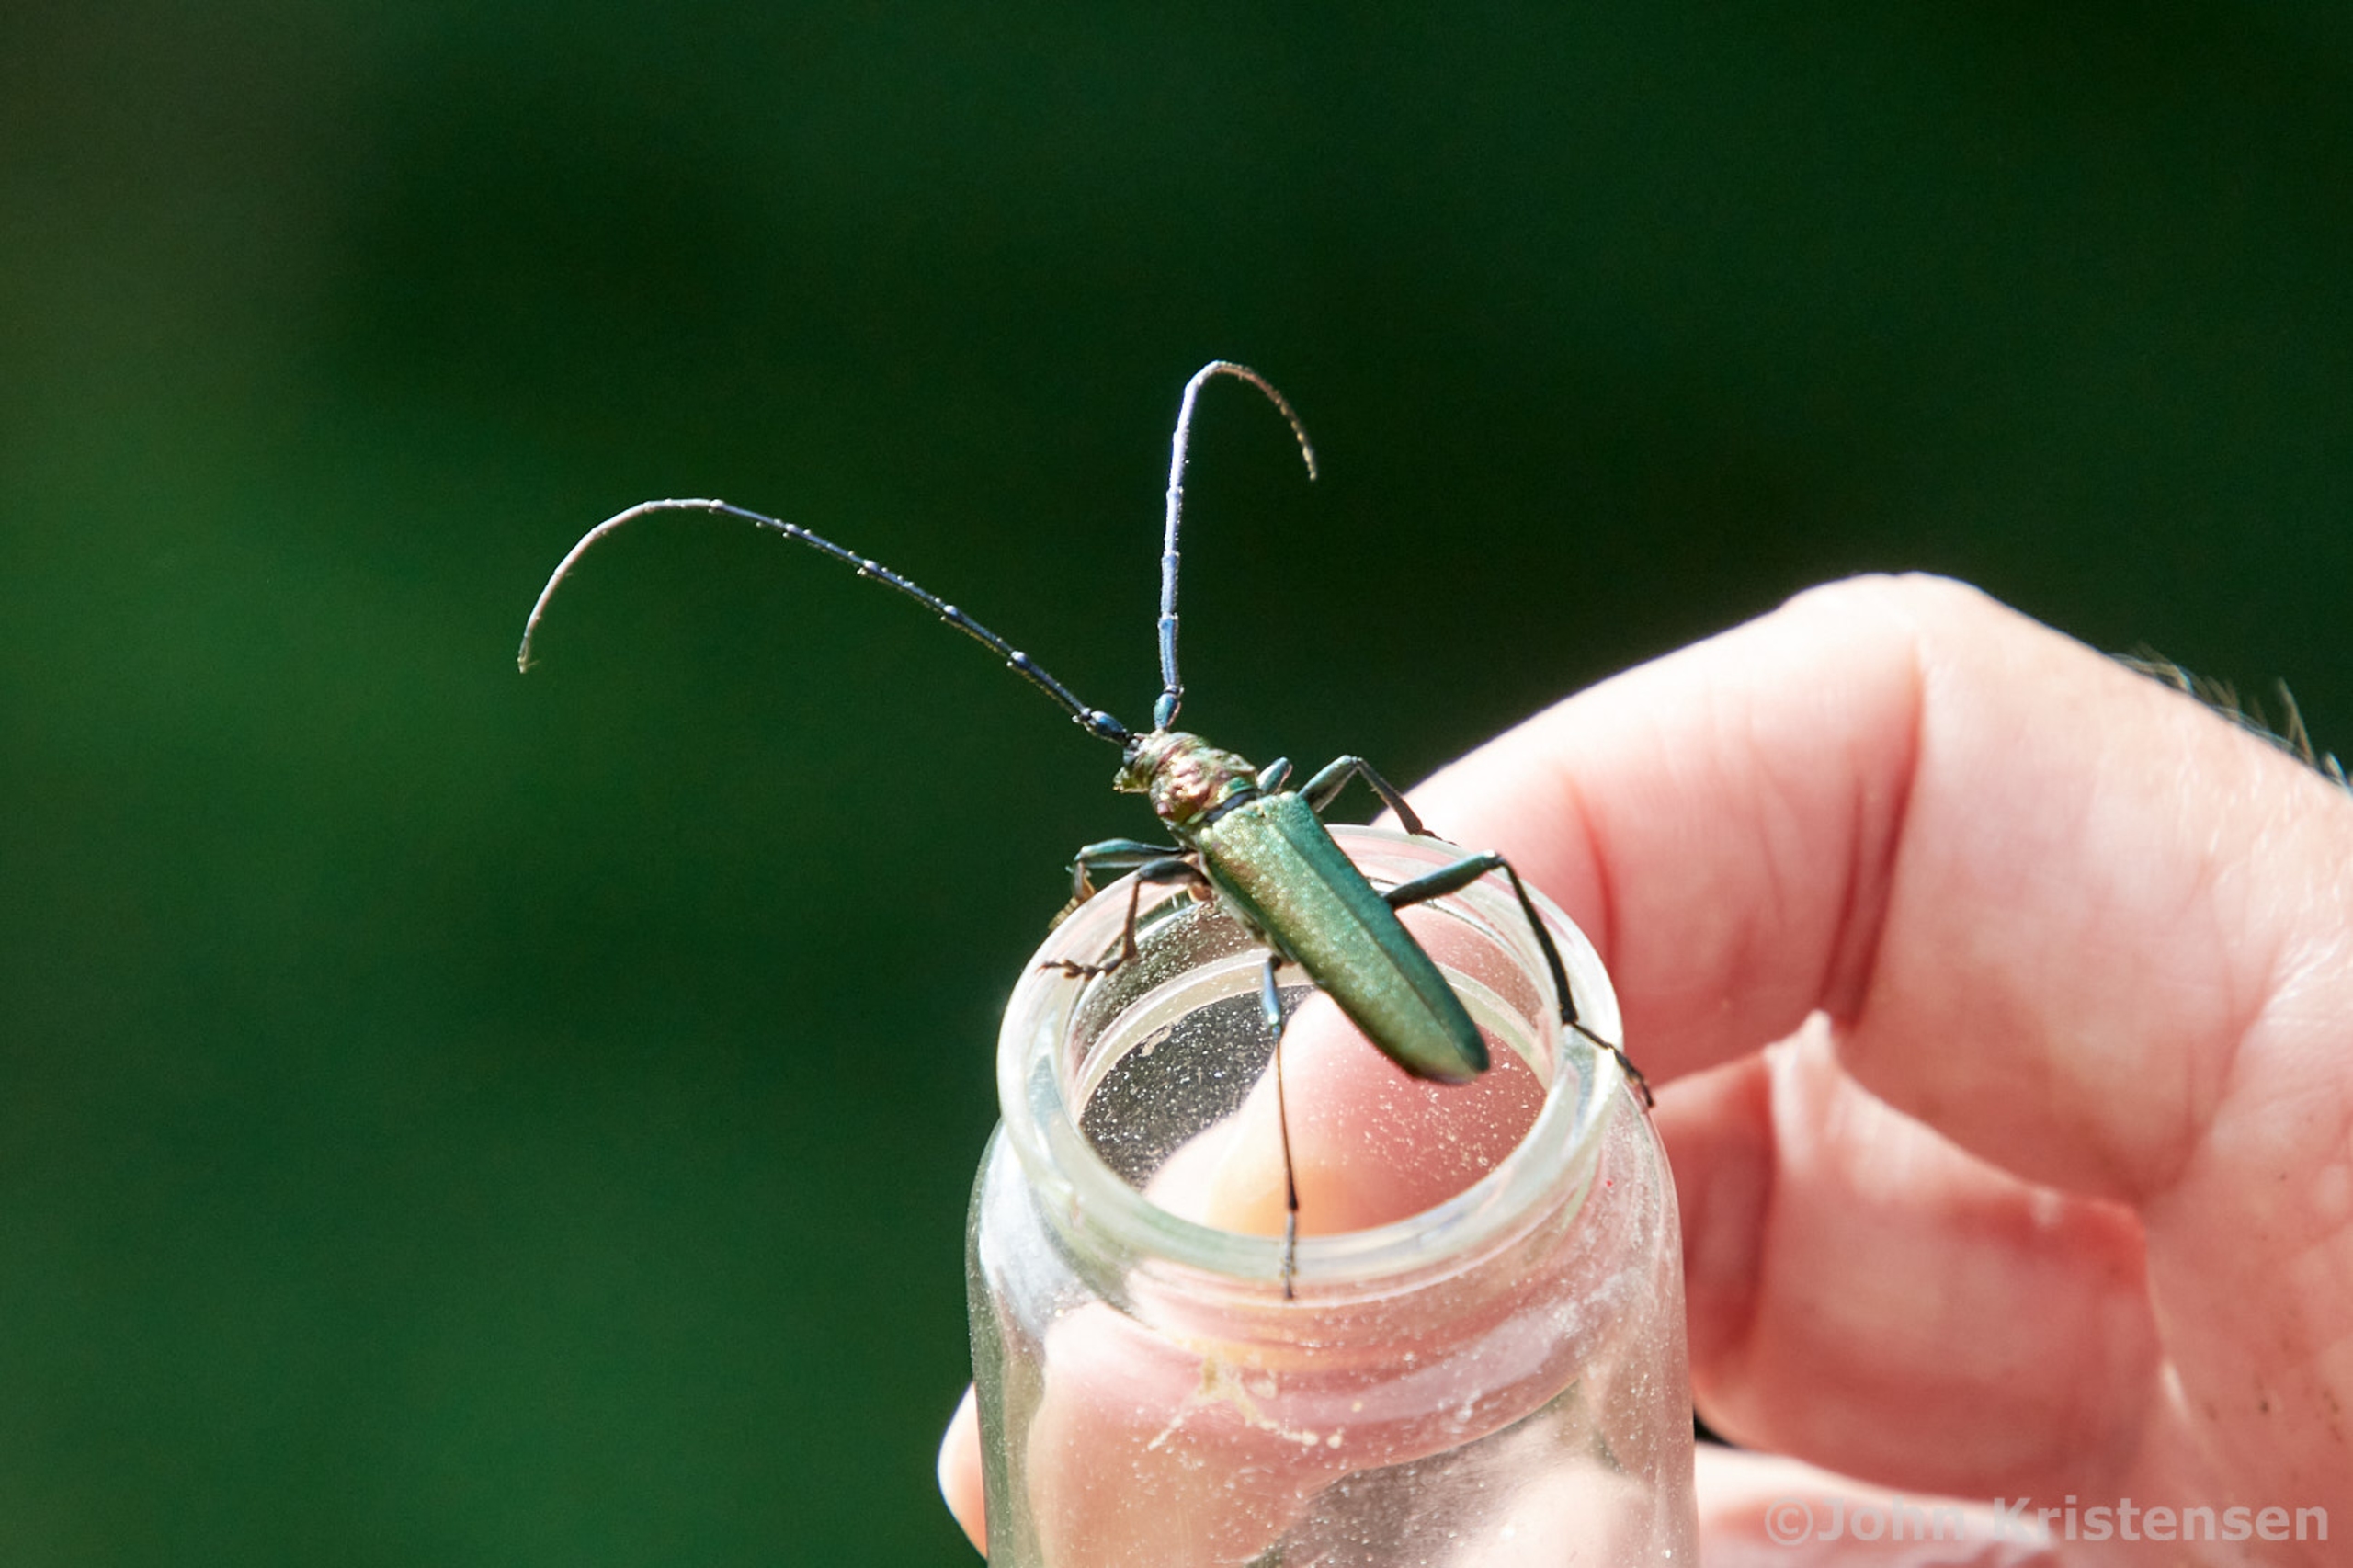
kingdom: Animalia
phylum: Arthropoda
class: Insecta
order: Coleoptera
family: Cerambycidae
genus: Aromia
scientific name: Aromia moschata
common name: Moskusbuk
